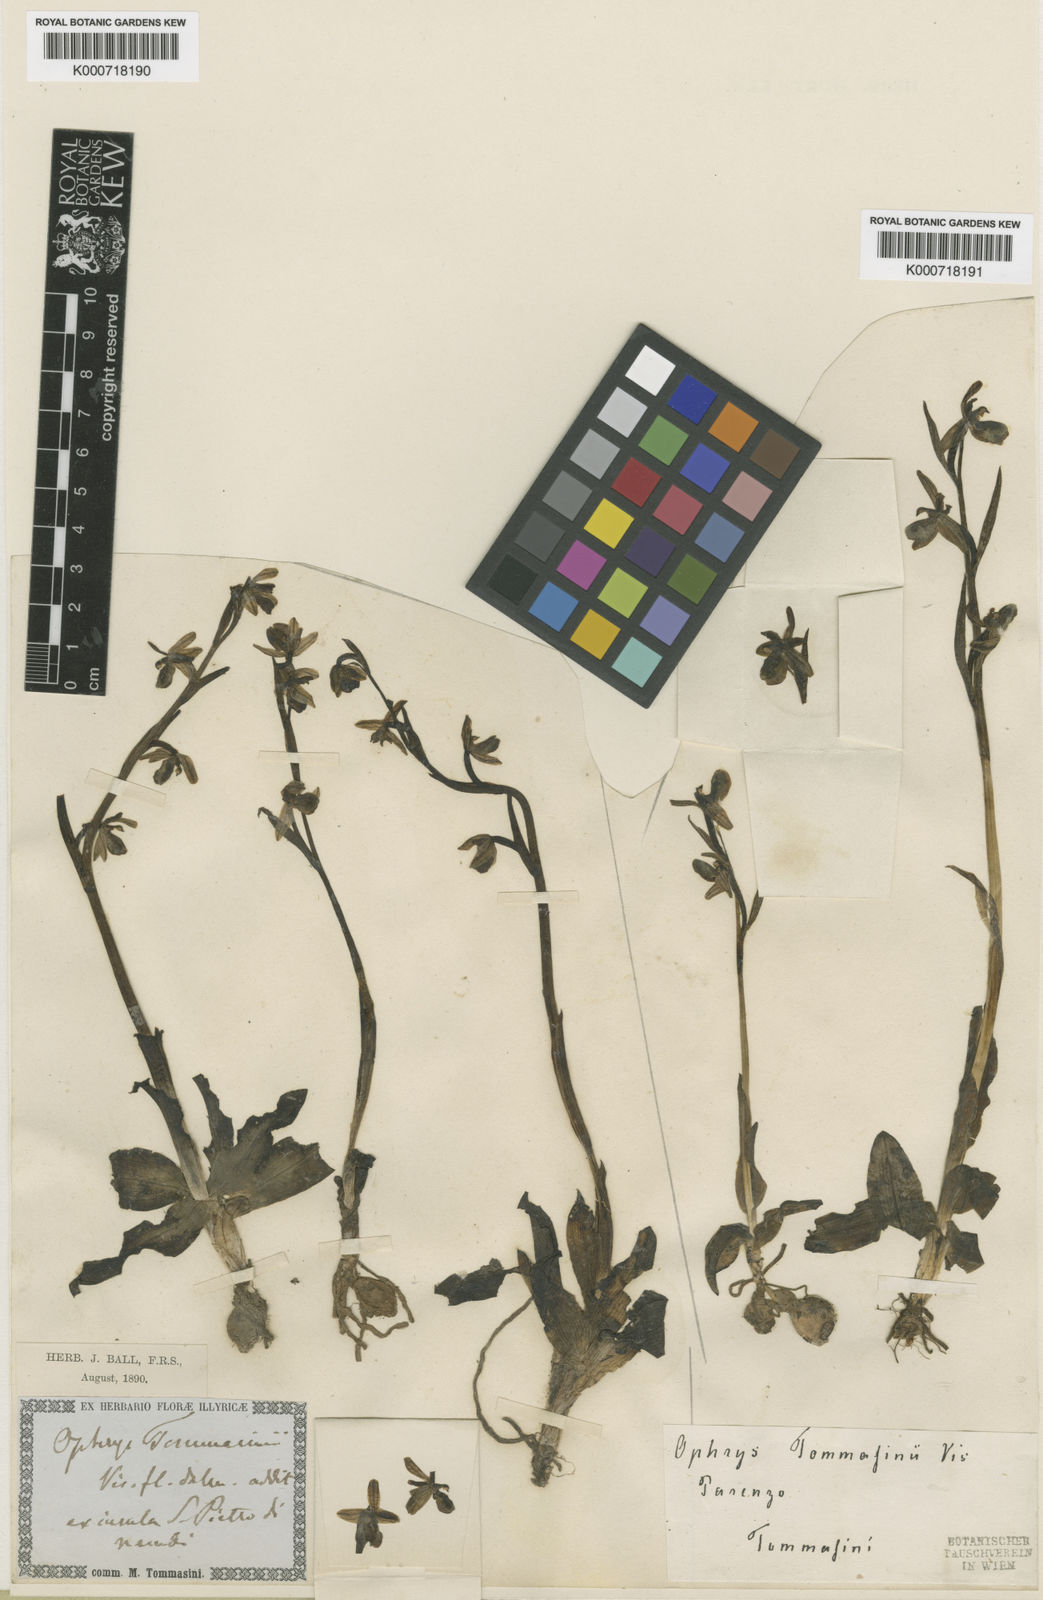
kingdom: Plantae
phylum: Tracheophyta
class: Liliopsida
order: Asparagales
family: Orchidaceae
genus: Ophrys
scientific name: Ophrys sphegodes
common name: Early spider-orchid
